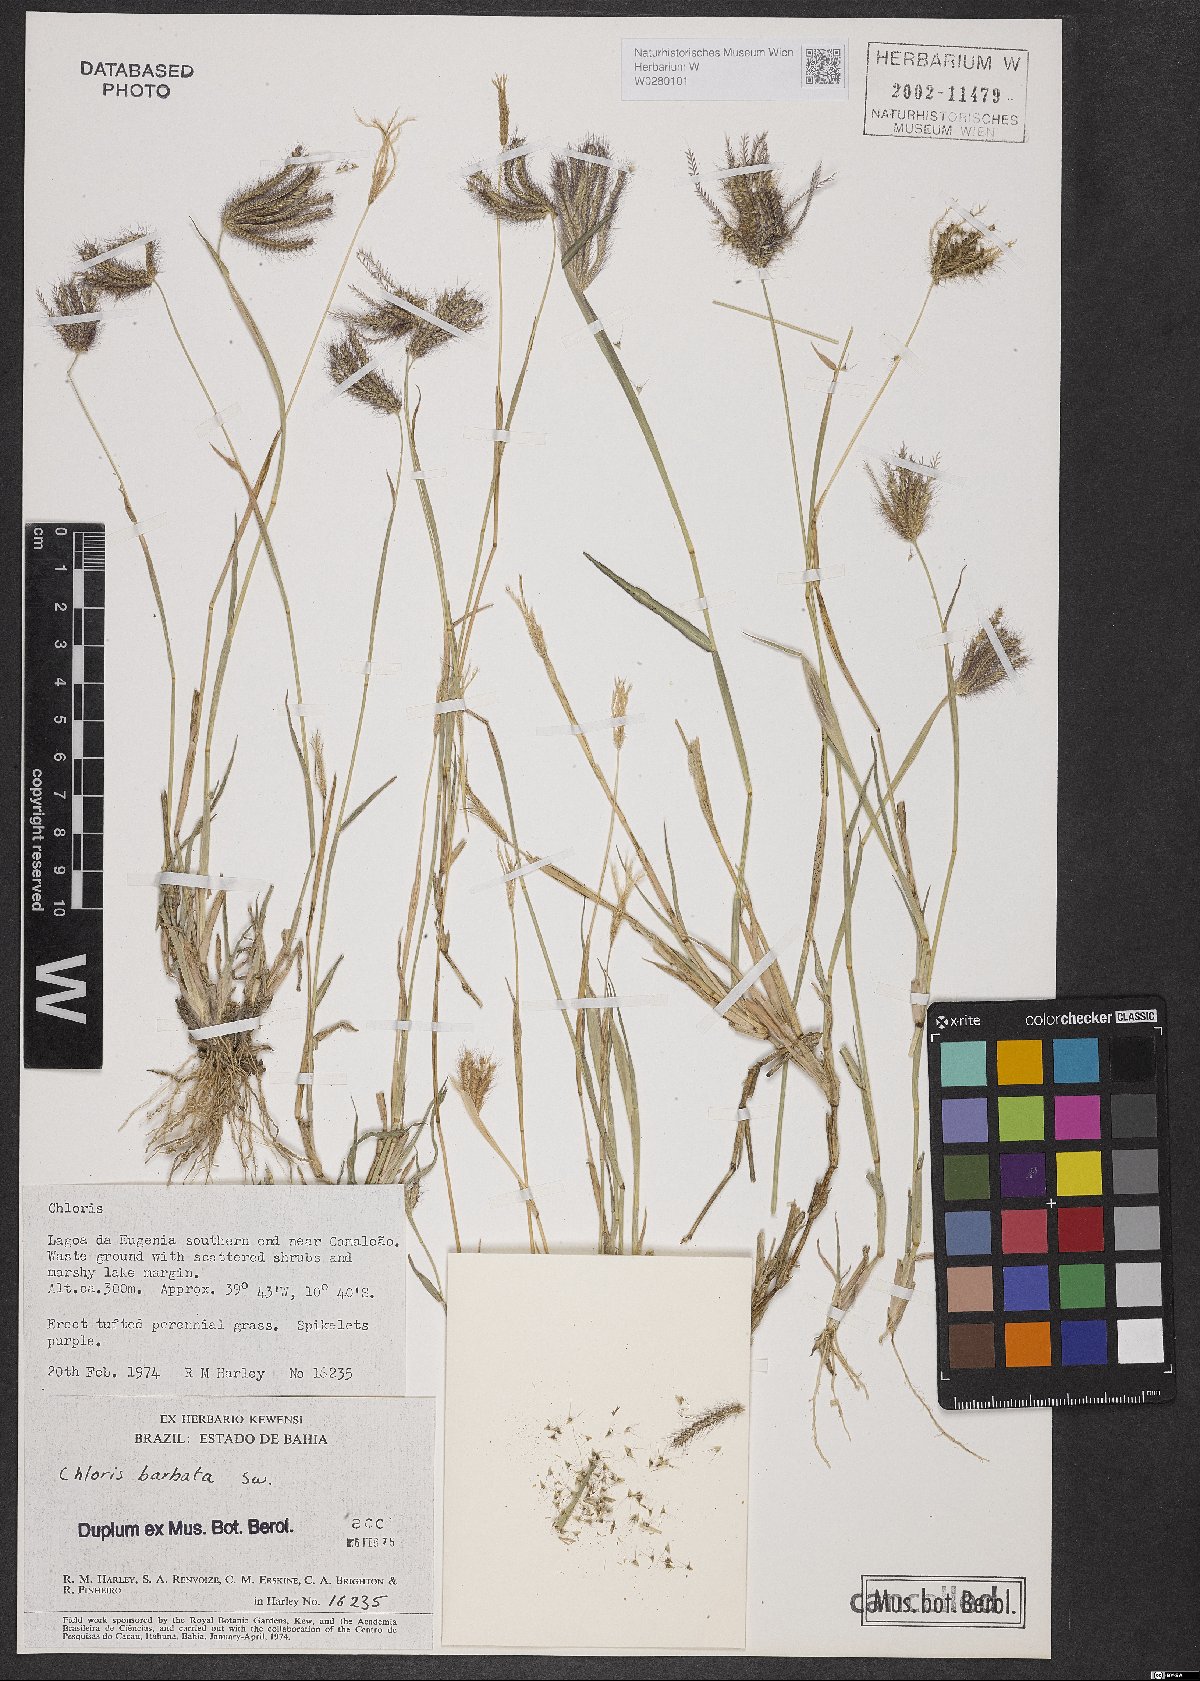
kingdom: Plantae
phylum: Tracheophyta
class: Liliopsida
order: Poales
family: Poaceae
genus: Chloris
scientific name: Chloris barbata
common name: Swollen fingergrass
